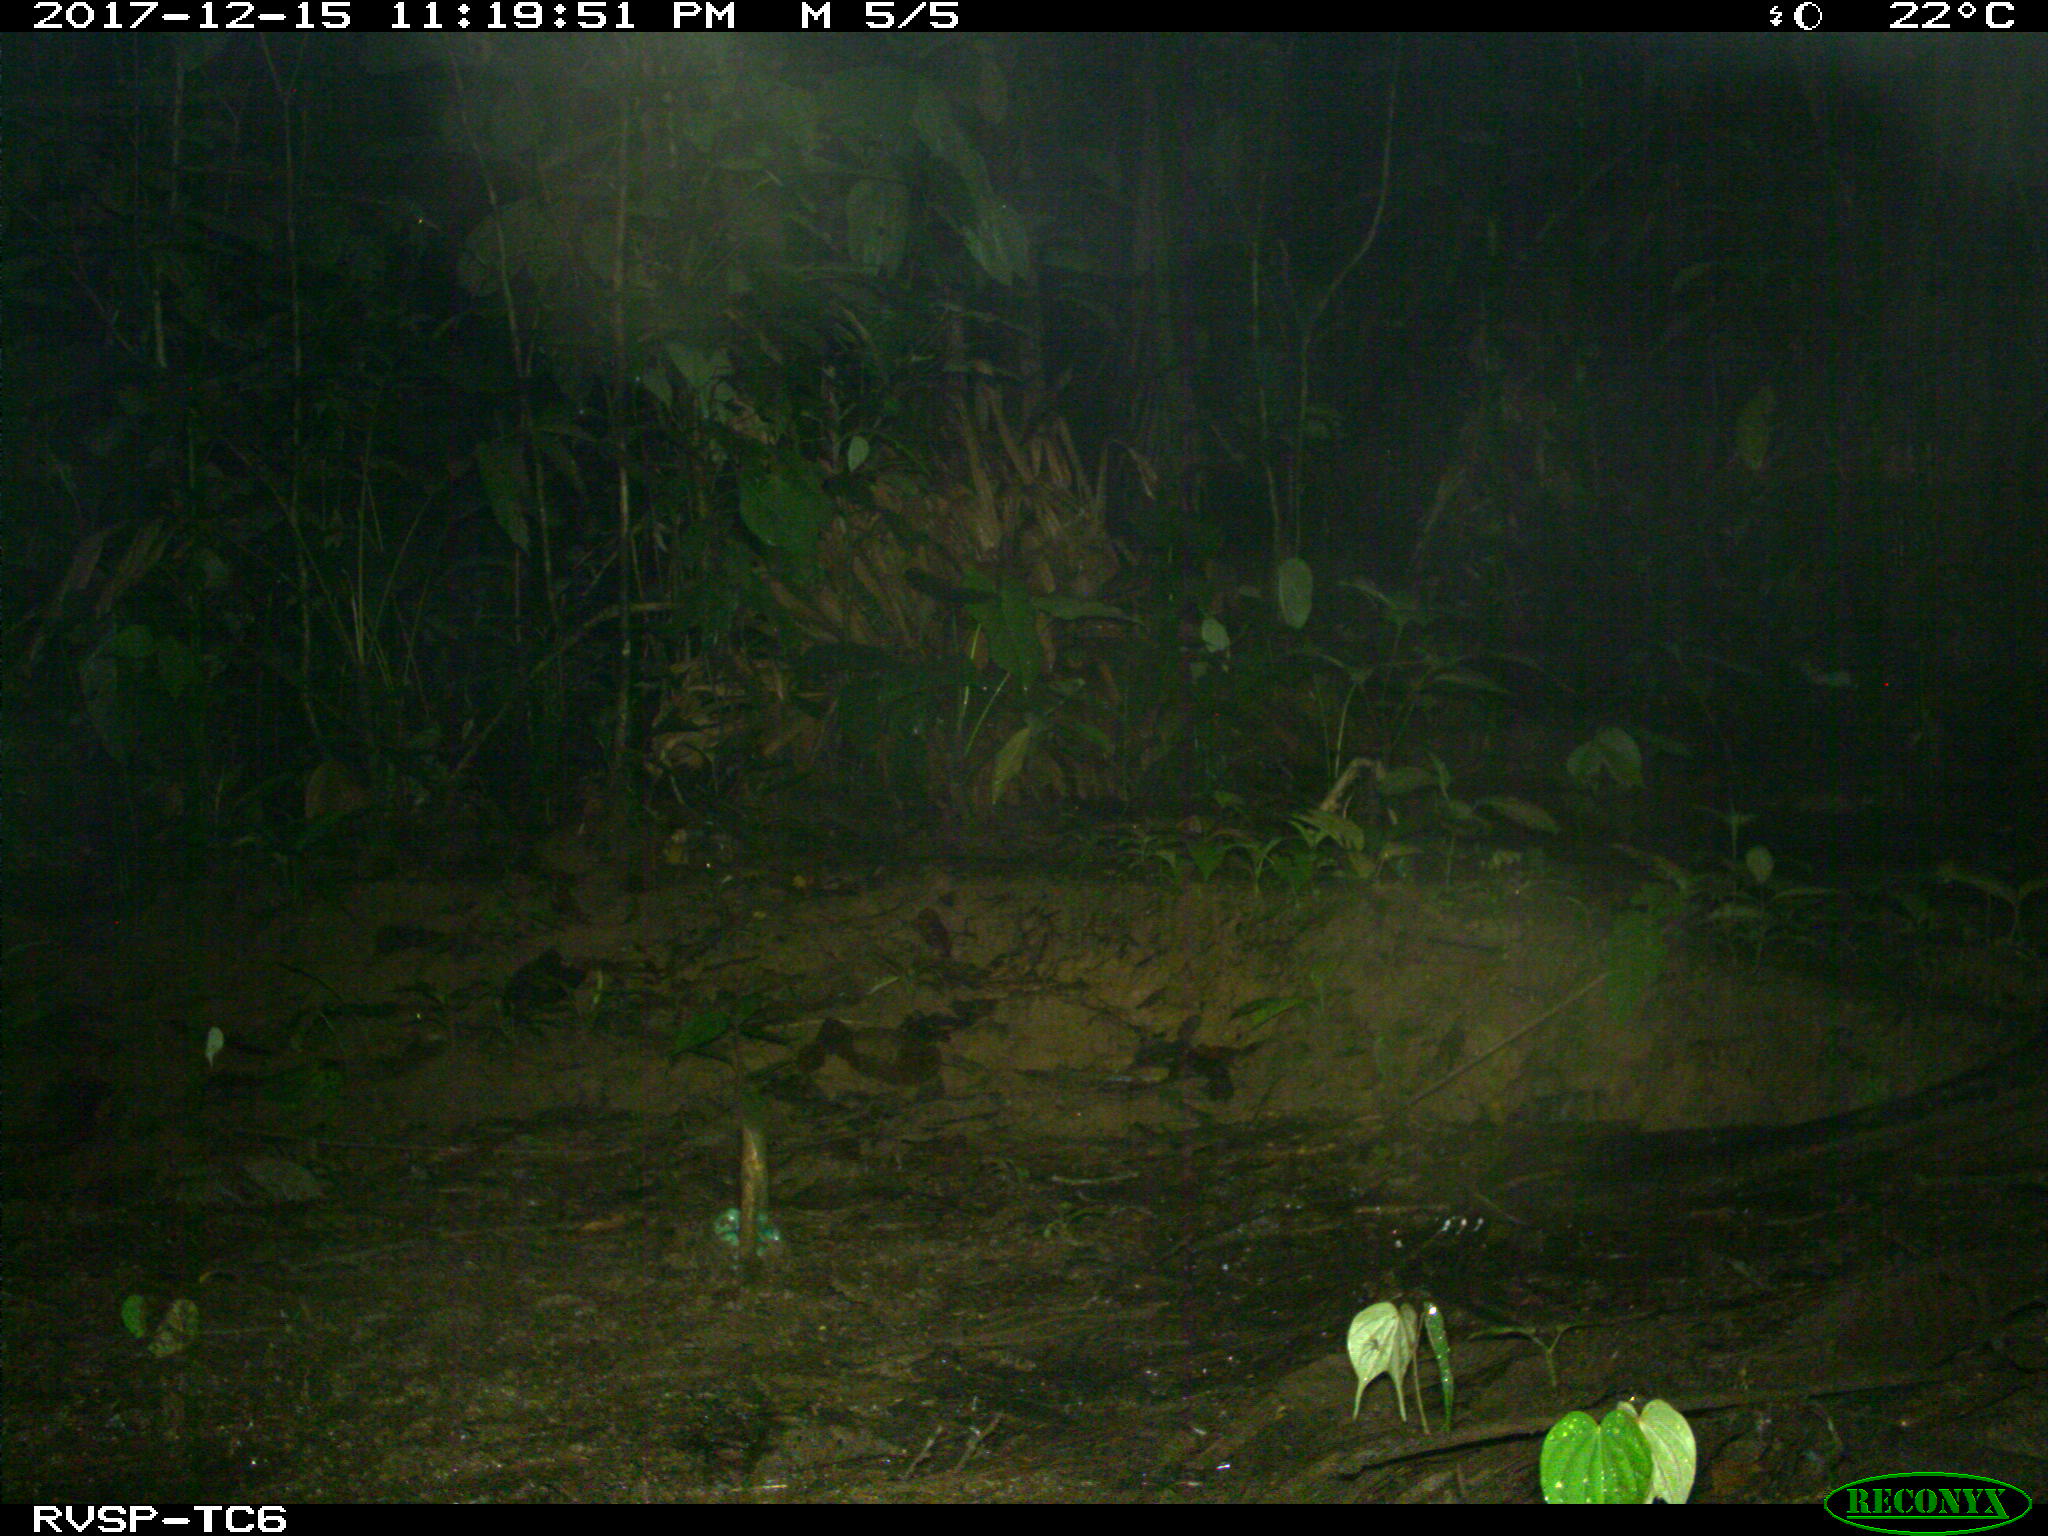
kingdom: Animalia
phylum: Chordata
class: Mammalia
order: Rodentia
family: Cuniculidae
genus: Cuniculus
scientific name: Cuniculus paca
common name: Lowland paca
